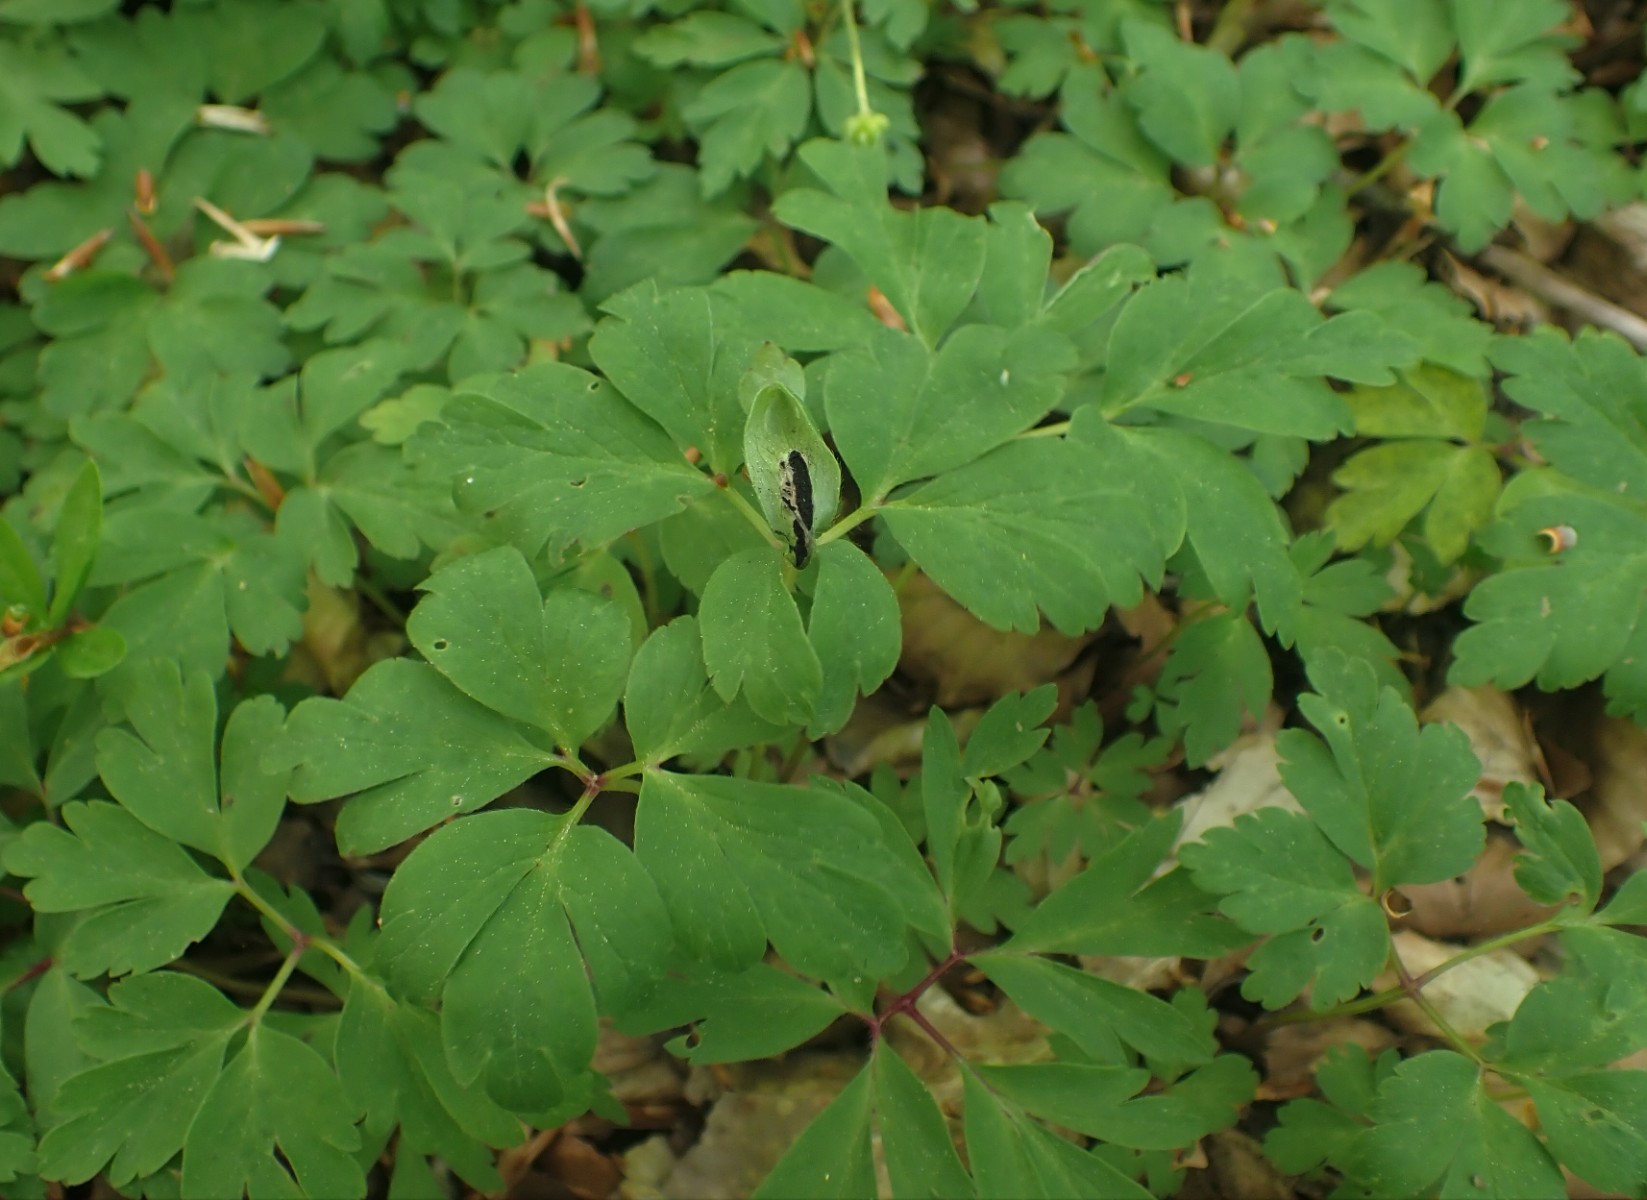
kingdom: Fungi
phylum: Basidiomycota
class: Ustilaginomycetes
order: Urocystidales
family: Urocystidaceae
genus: Urocystis
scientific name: Urocystis anemones
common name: anemone-brand
